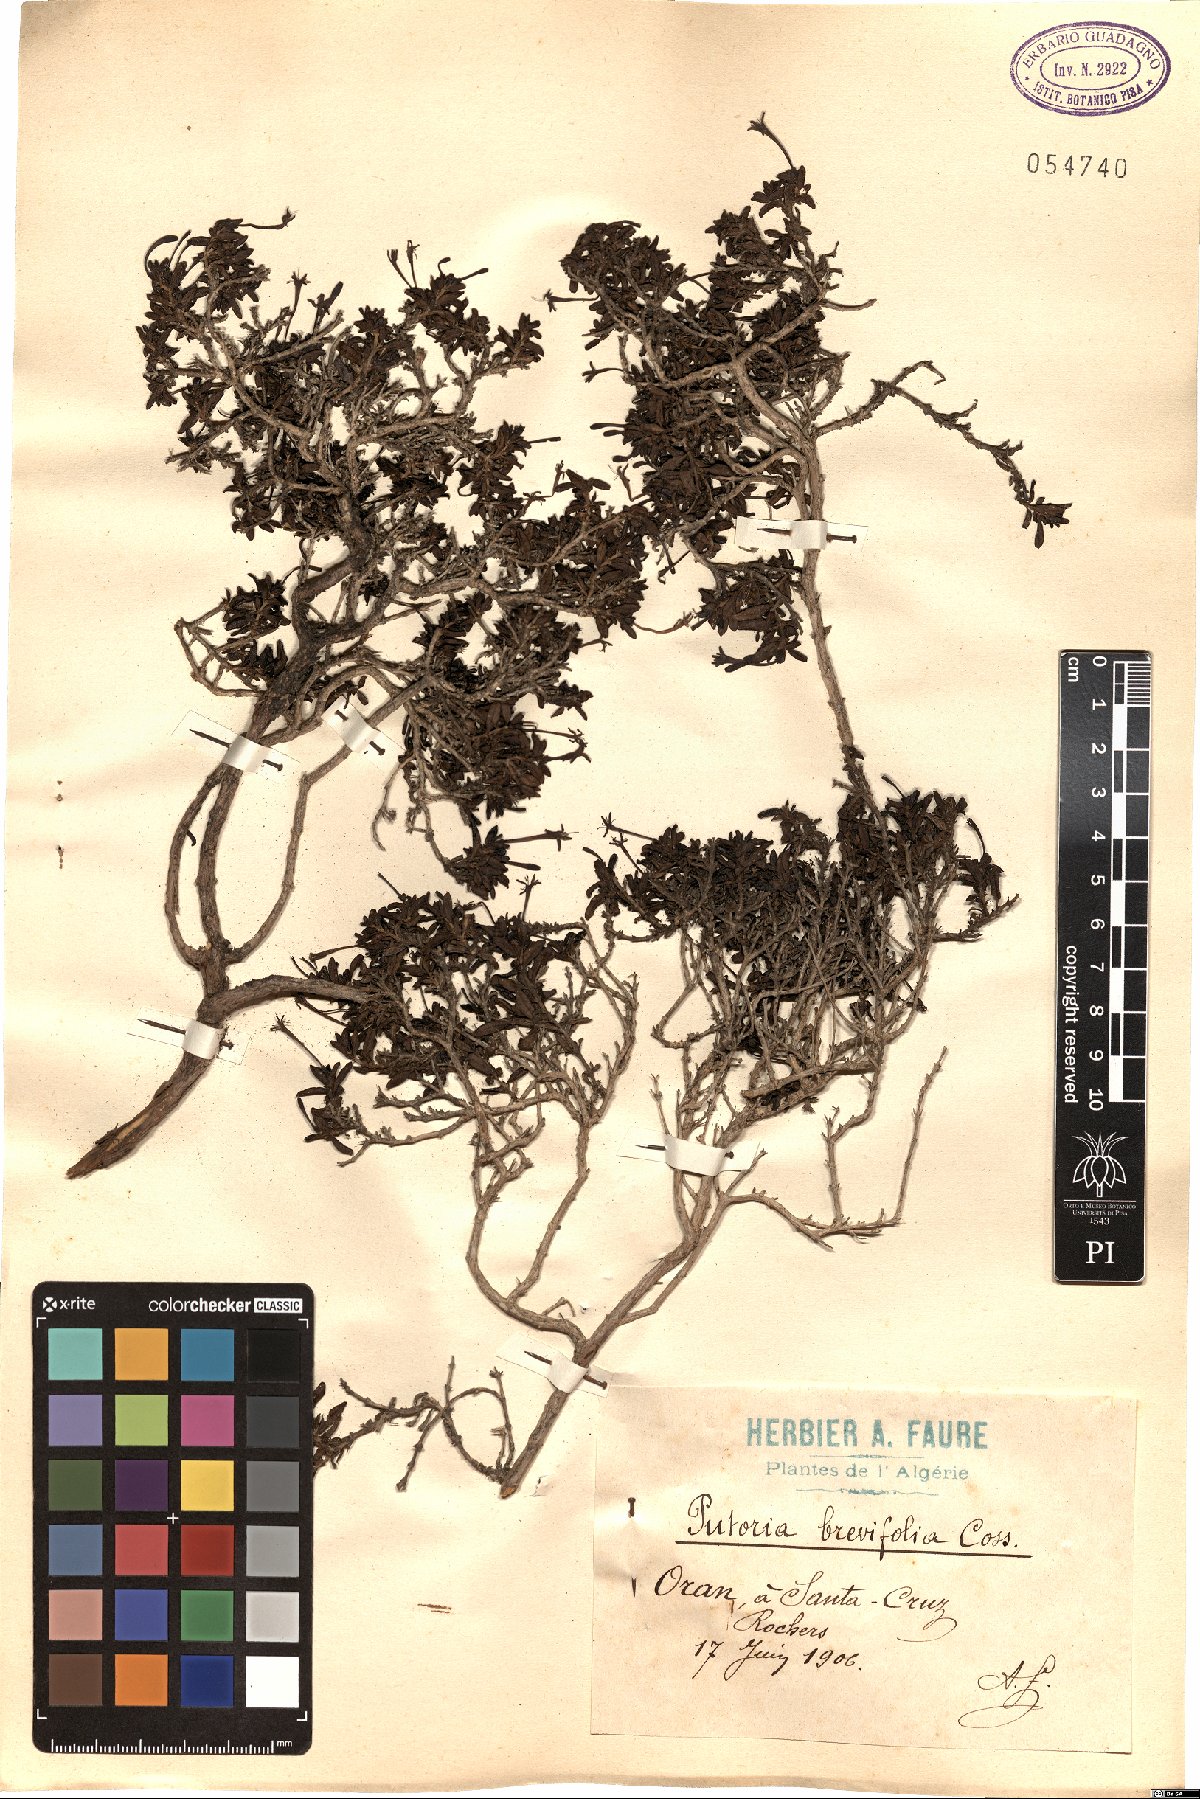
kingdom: Plantae
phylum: Tracheophyta
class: Magnoliopsida
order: Gentianales
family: Rubiaceae
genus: Plocama
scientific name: Plocama brevifolia
